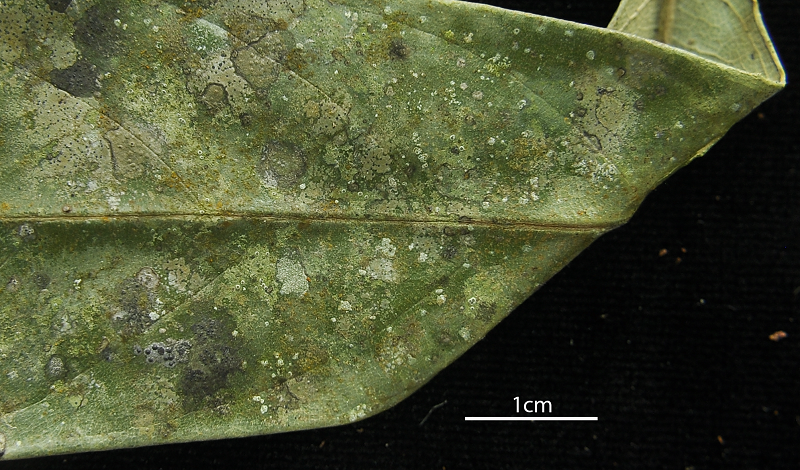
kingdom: Fungi
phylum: Ascomycota
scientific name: Ascomycota
